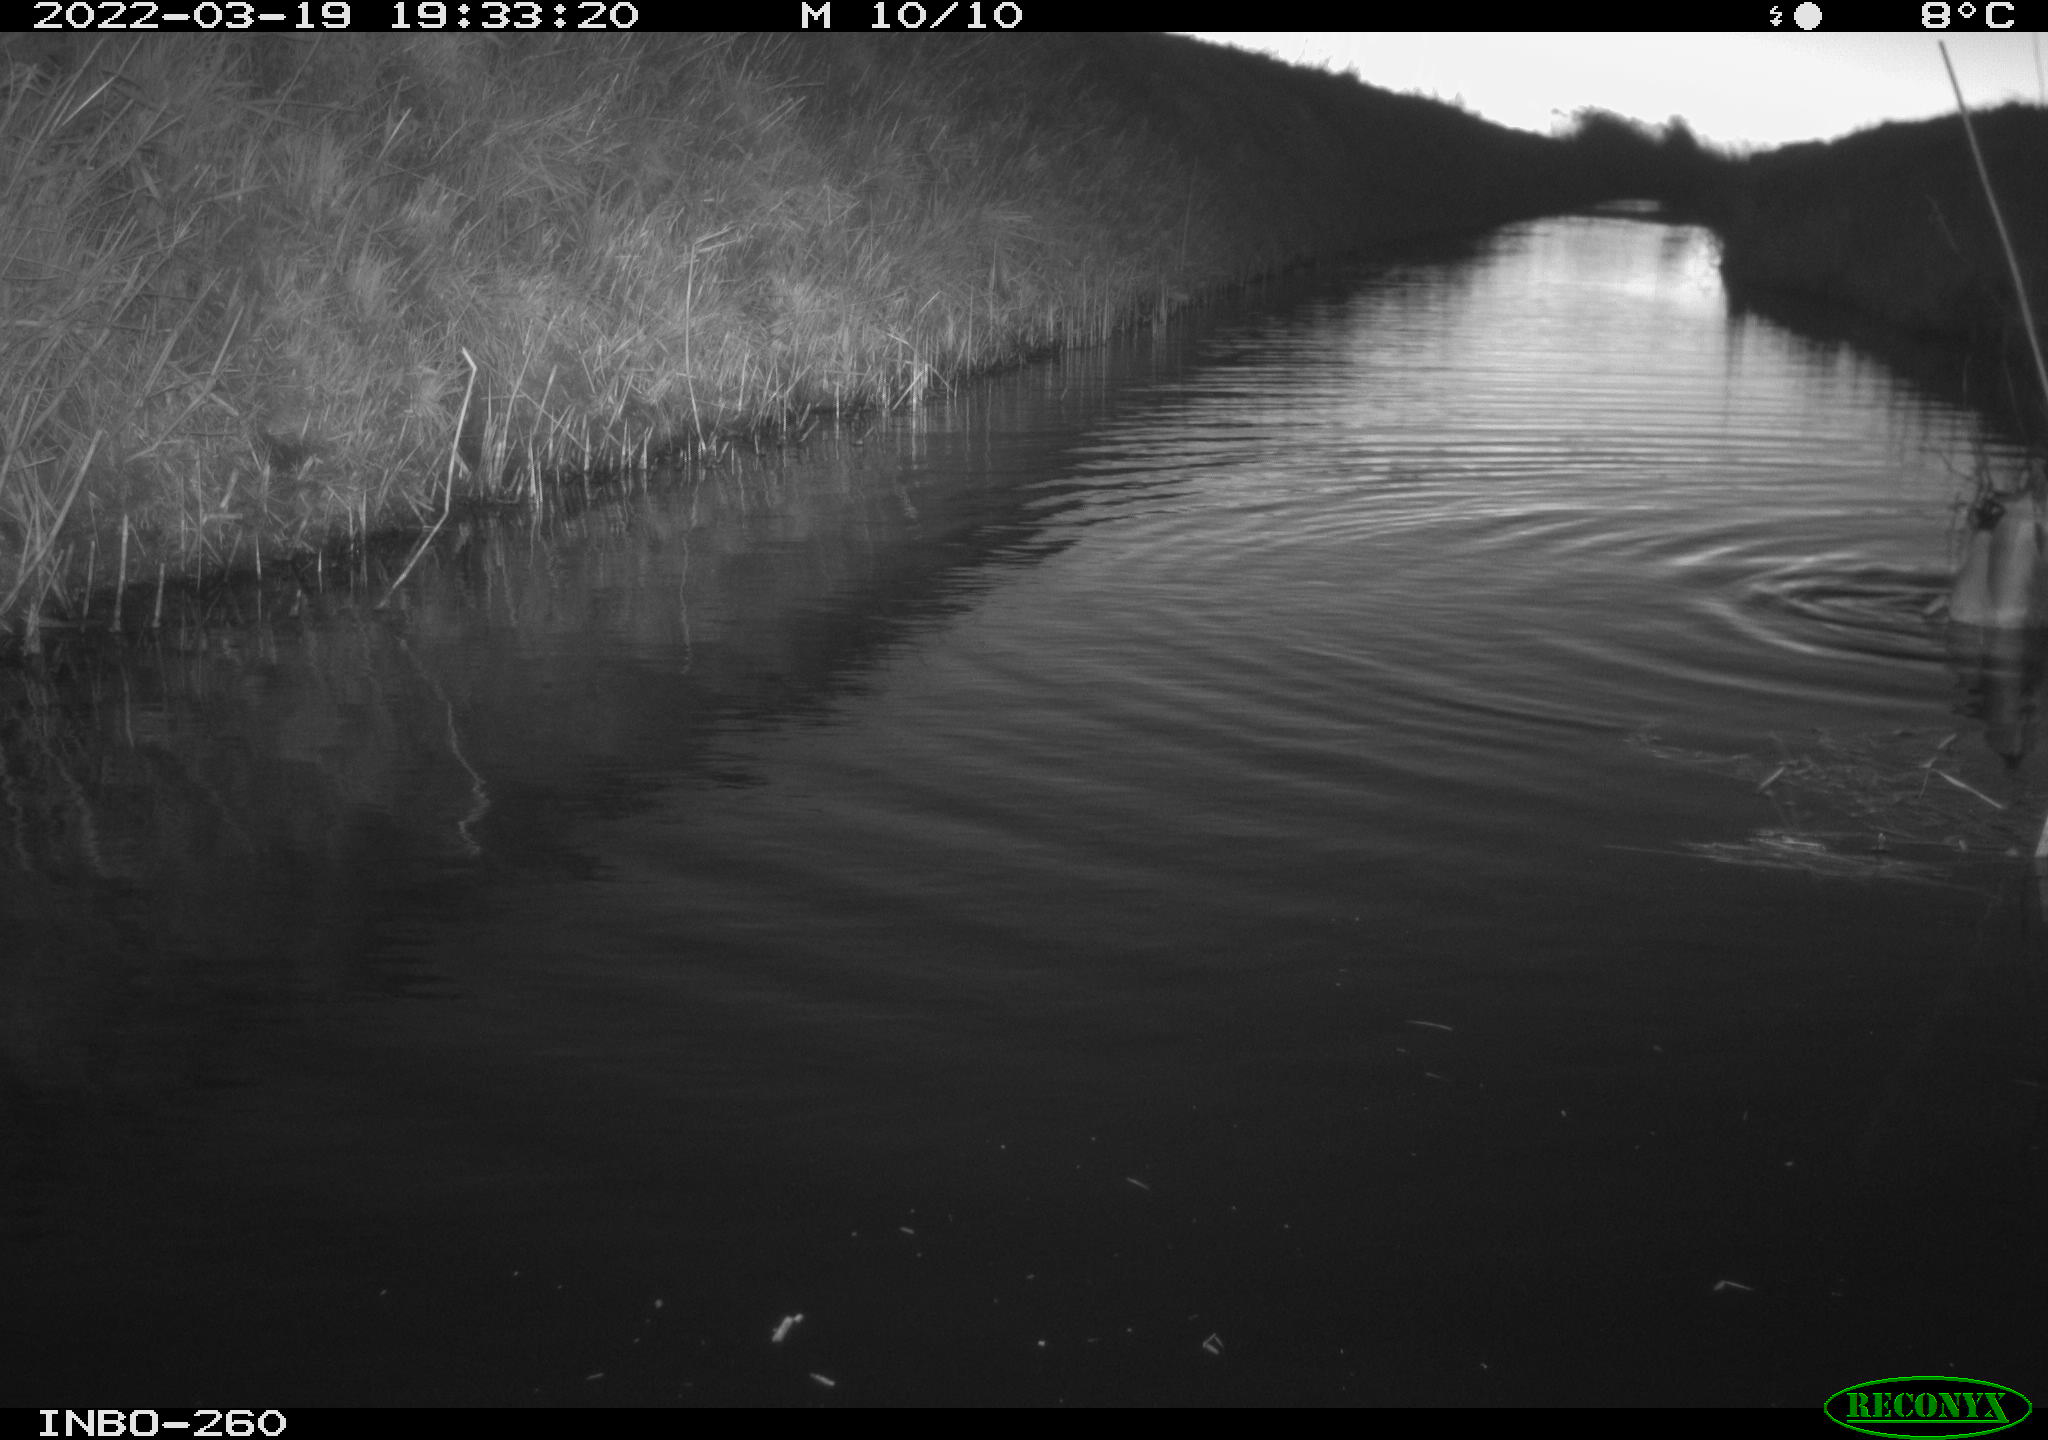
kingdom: Animalia
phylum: Chordata
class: Aves
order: Anseriformes
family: Anatidae
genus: Anas
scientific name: Anas platyrhynchos
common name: Mallard
